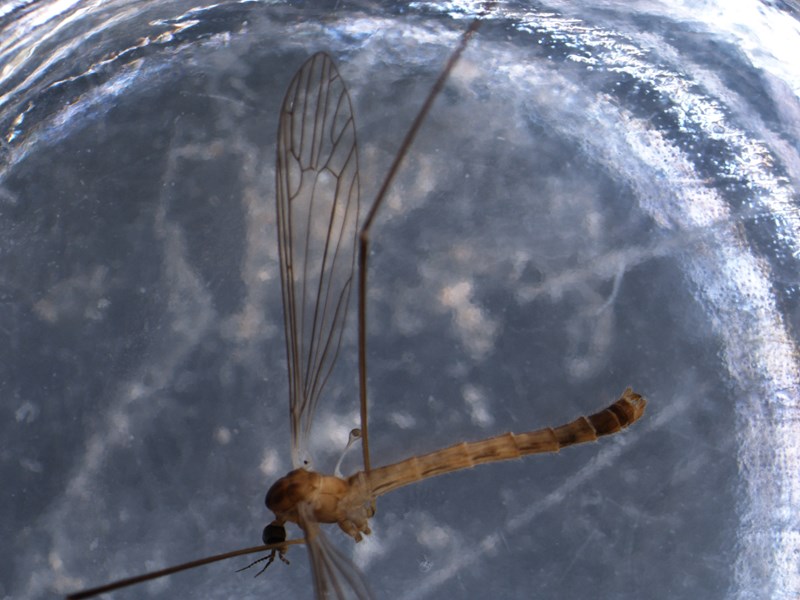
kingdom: Animalia
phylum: Arthropoda
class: Insecta
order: Diptera
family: Pediciidae
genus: Dicranota
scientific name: Dicranota gracilipes
